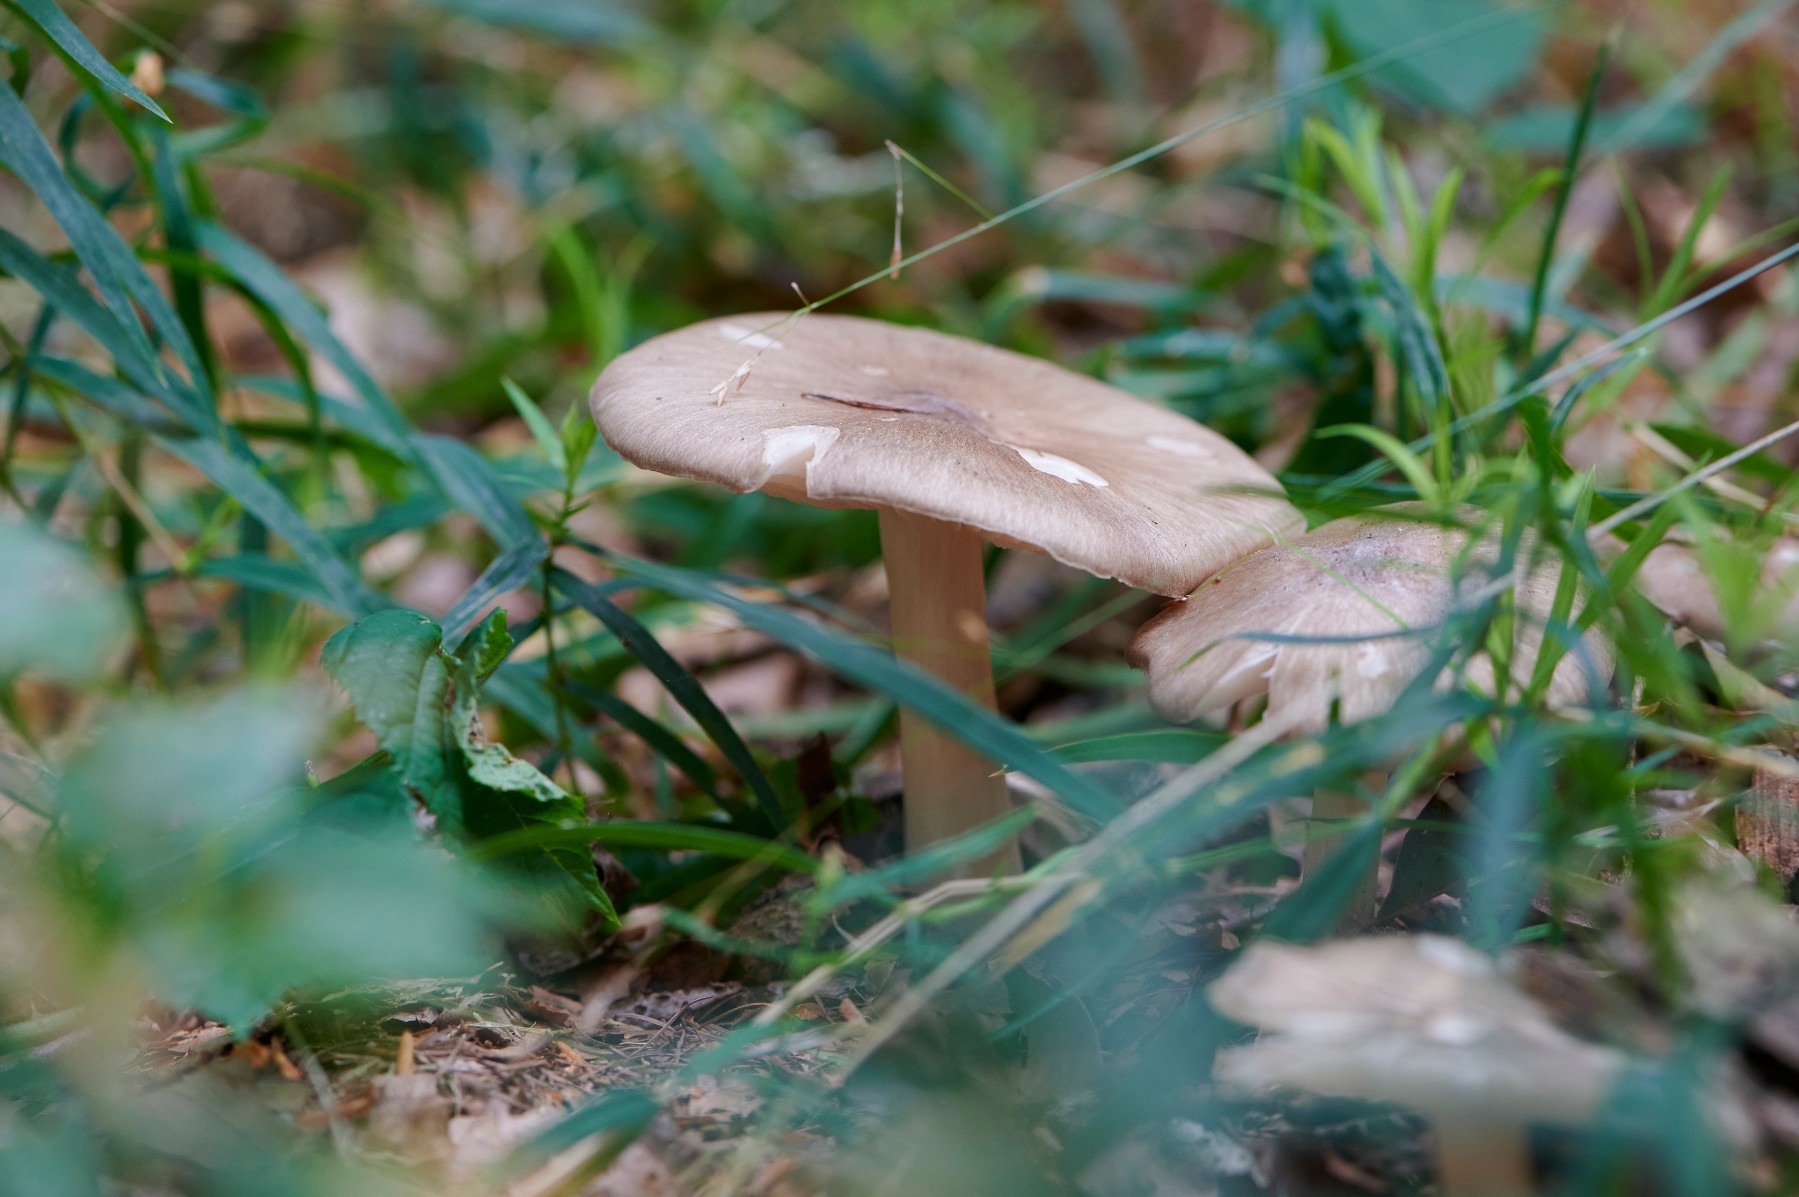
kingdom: Fungi
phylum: Basidiomycota
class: Agaricomycetes
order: Agaricales
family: Tricholomataceae
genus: Megacollybia
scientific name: Megacollybia platyphylla
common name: bredbladet væbnerhat
